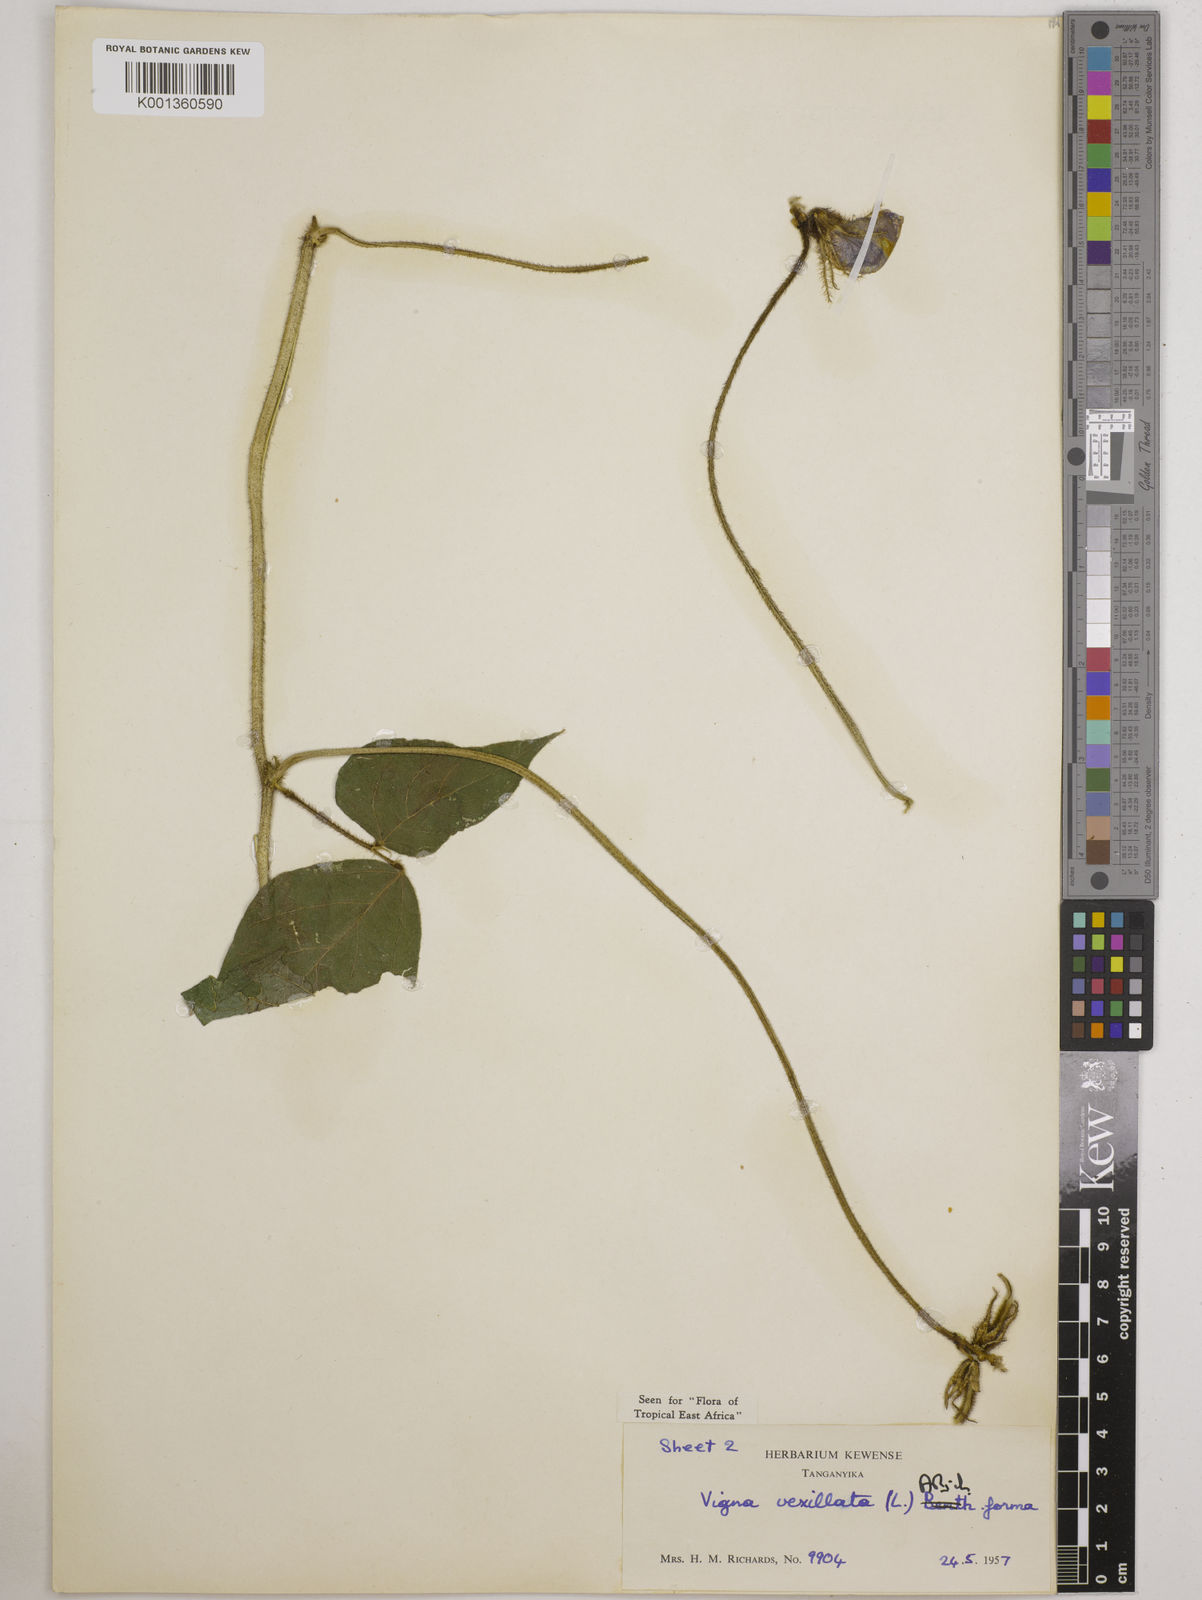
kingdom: Plantae
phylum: Tracheophyta
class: Magnoliopsida
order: Fabales
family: Fabaceae
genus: Vigna
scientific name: Vigna vexillata
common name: Zombi pea
